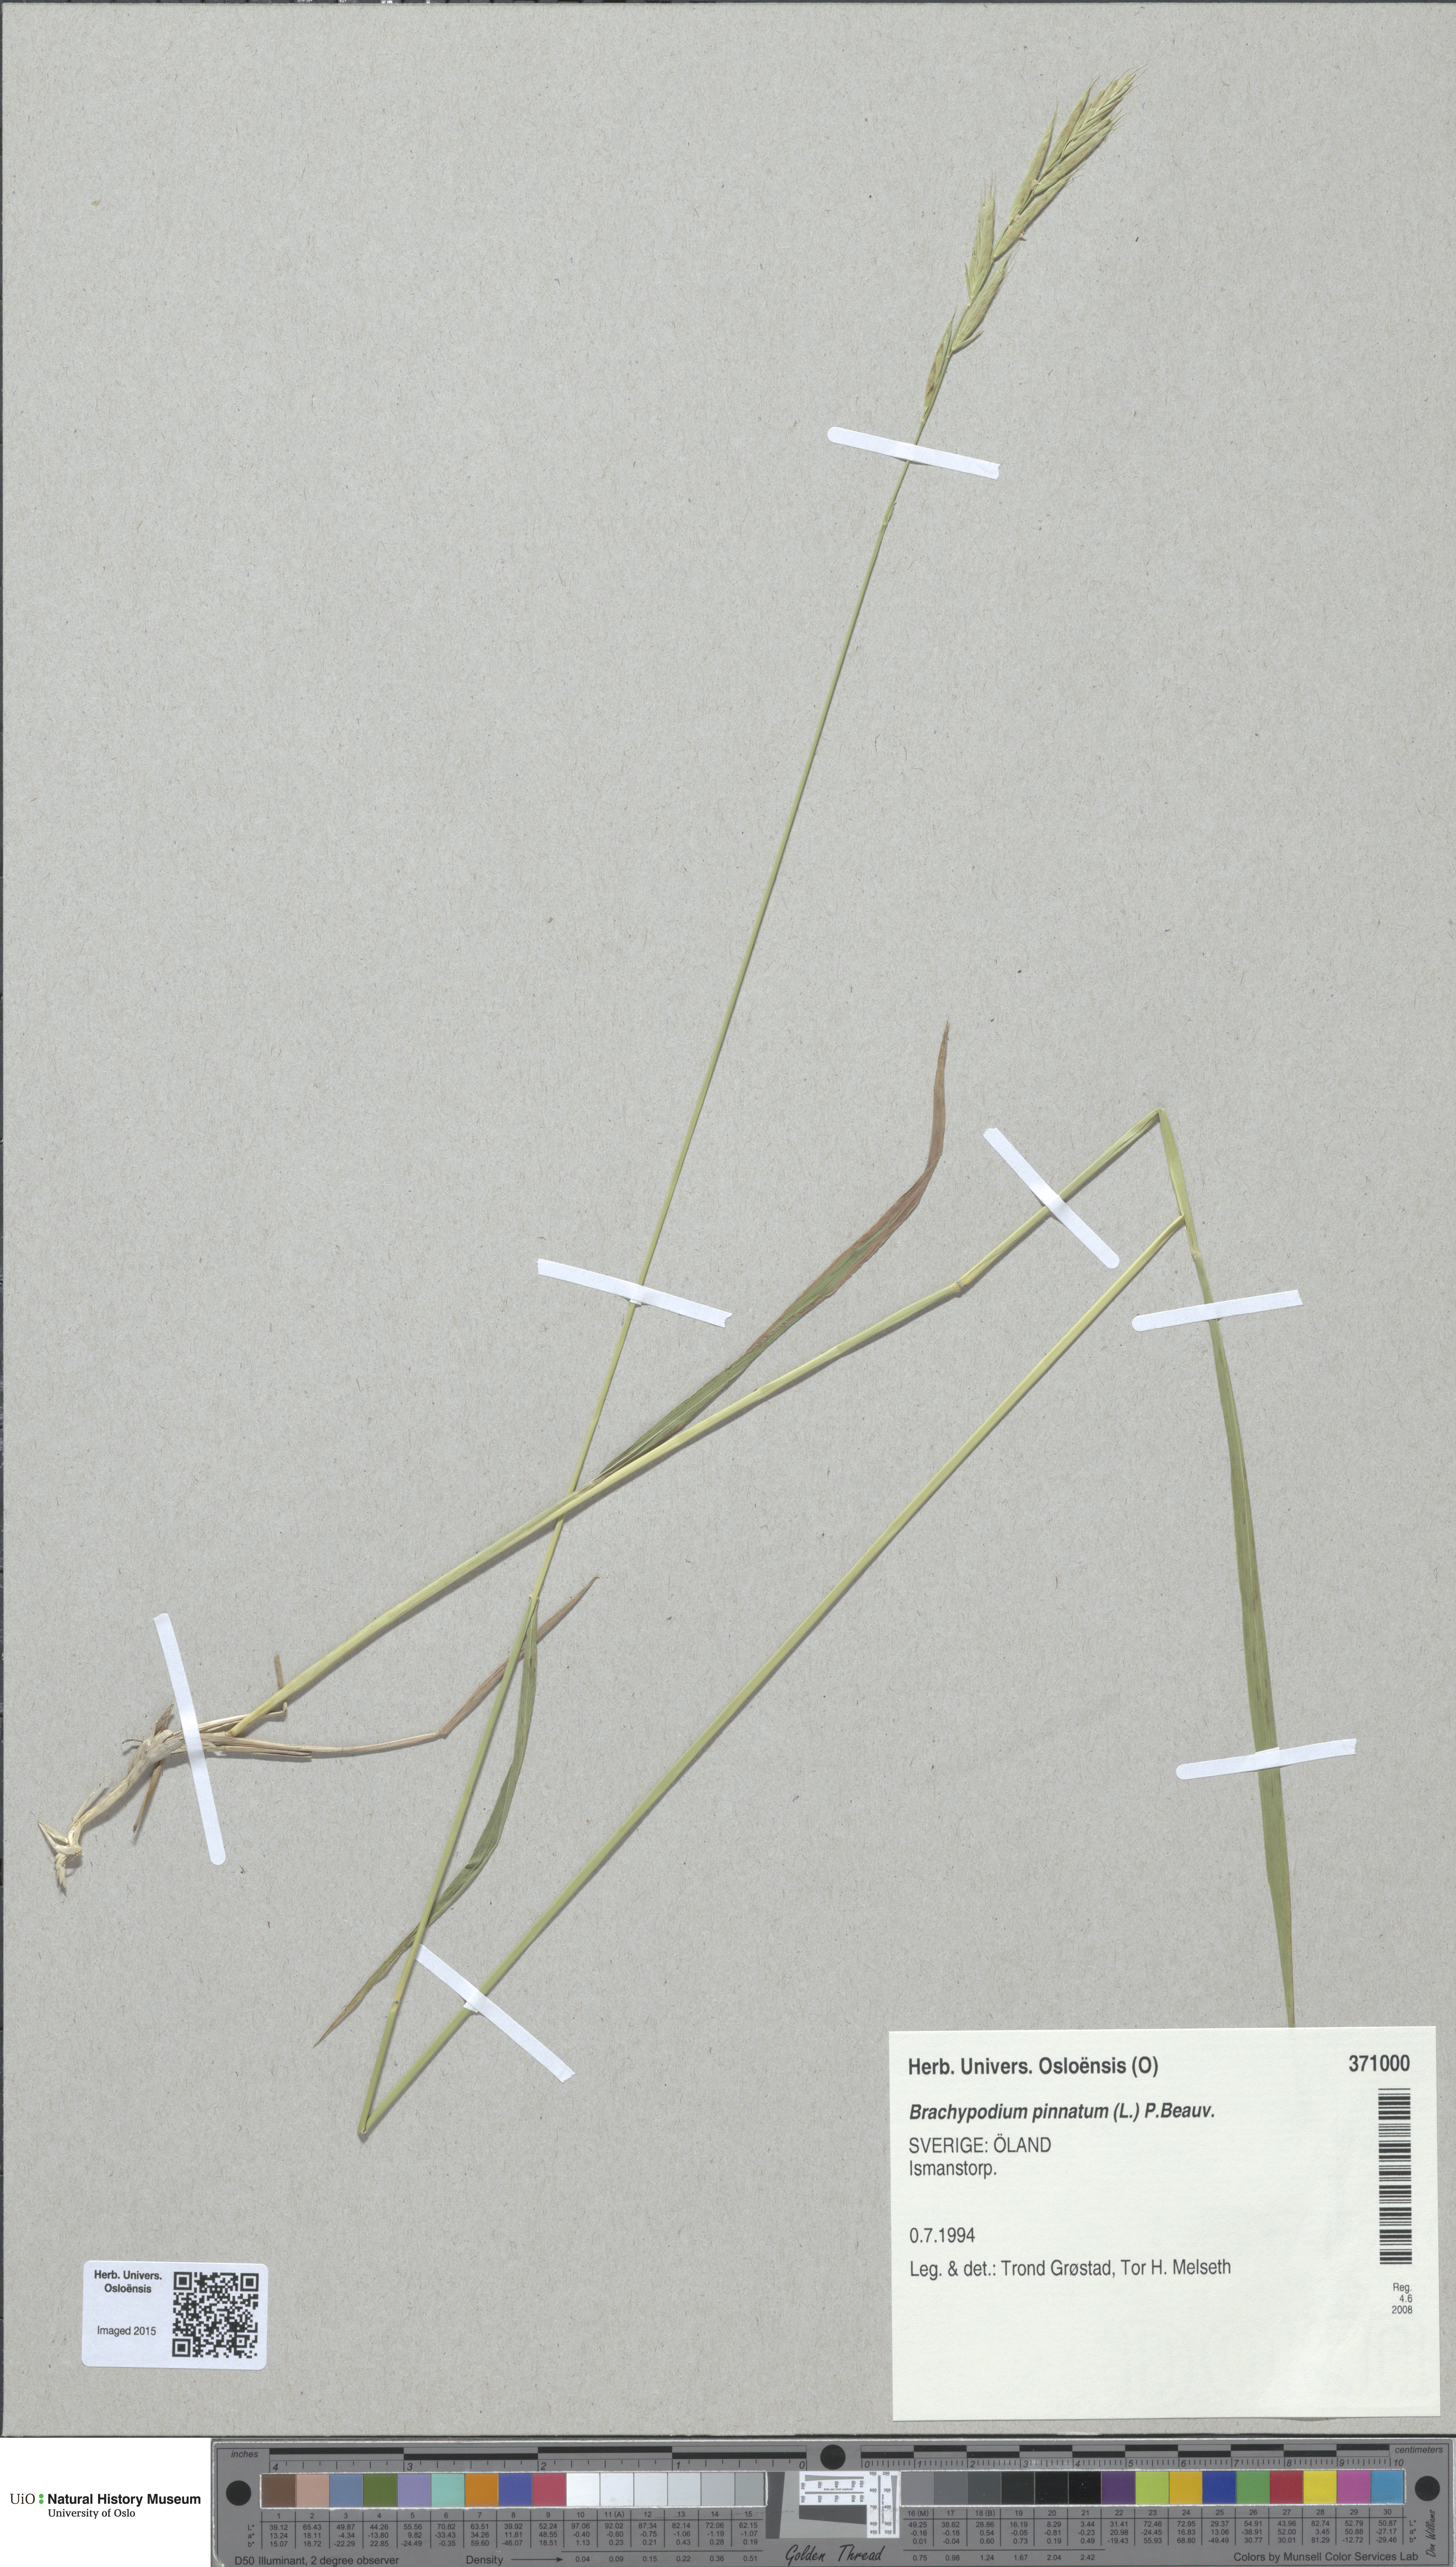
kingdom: Plantae
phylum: Tracheophyta
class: Liliopsida
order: Poales
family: Poaceae
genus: Brachypodium
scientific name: Brachypodium pinnatum
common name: Tor grass
